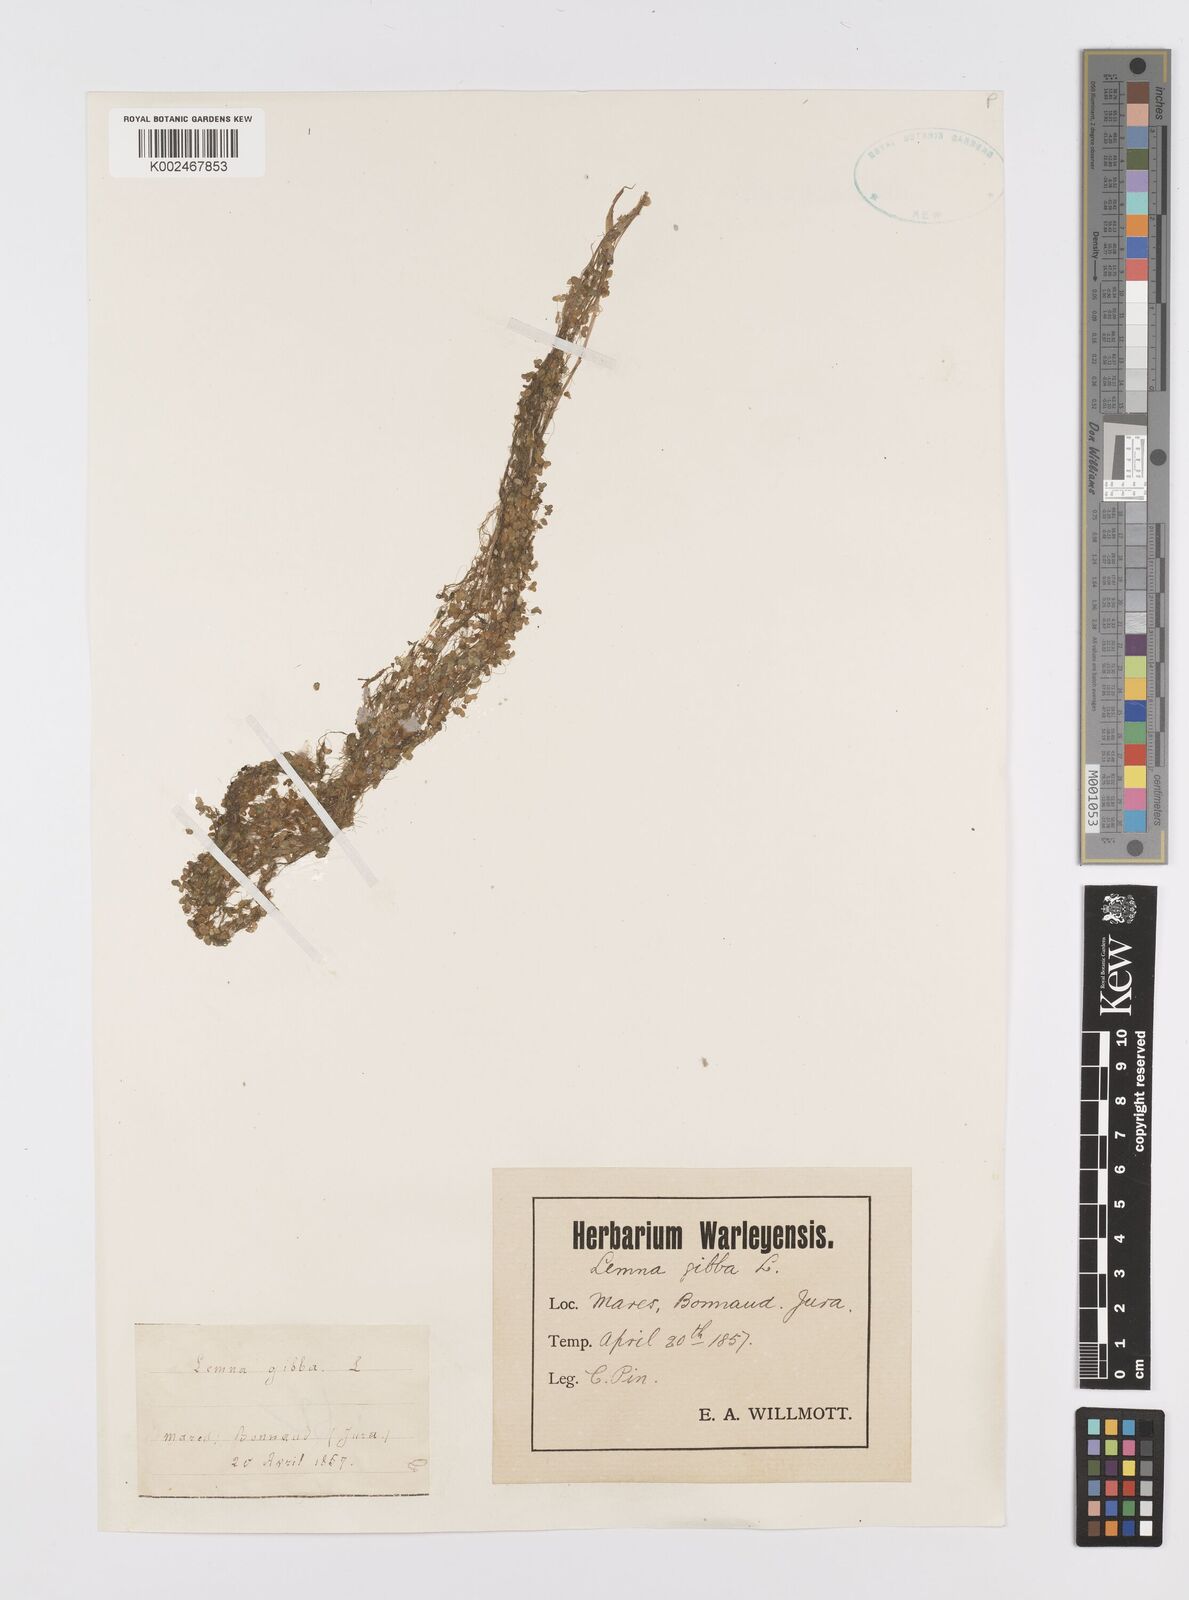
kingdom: Plantae
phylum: Tracheophyta
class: Liliopsida
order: Alismatales
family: Araceae
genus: Lemna
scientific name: Lemna gibba
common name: Fat duckweed
